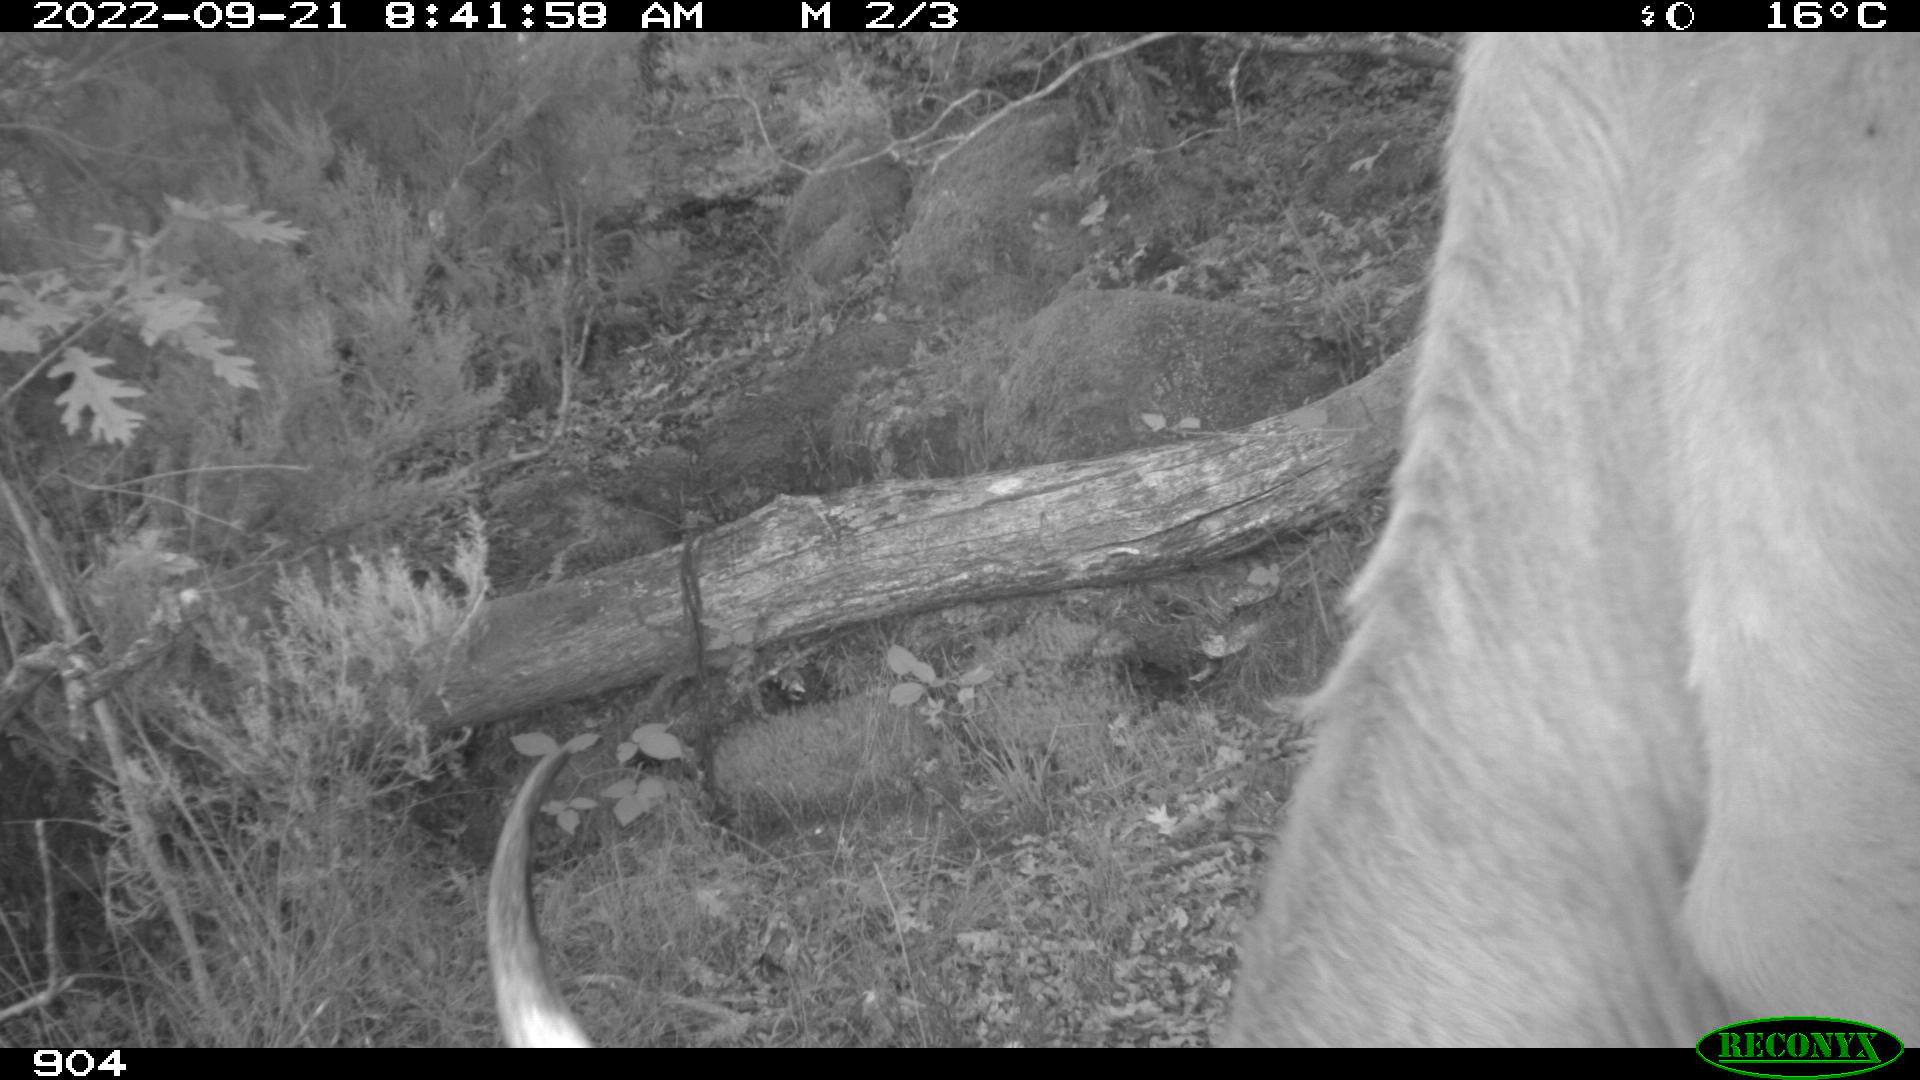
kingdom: Animalia
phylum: Chordata
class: Mammalia
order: Artiodactyla
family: Bovidae
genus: Bos
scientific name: Bos taurus
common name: Domesticated cattle
